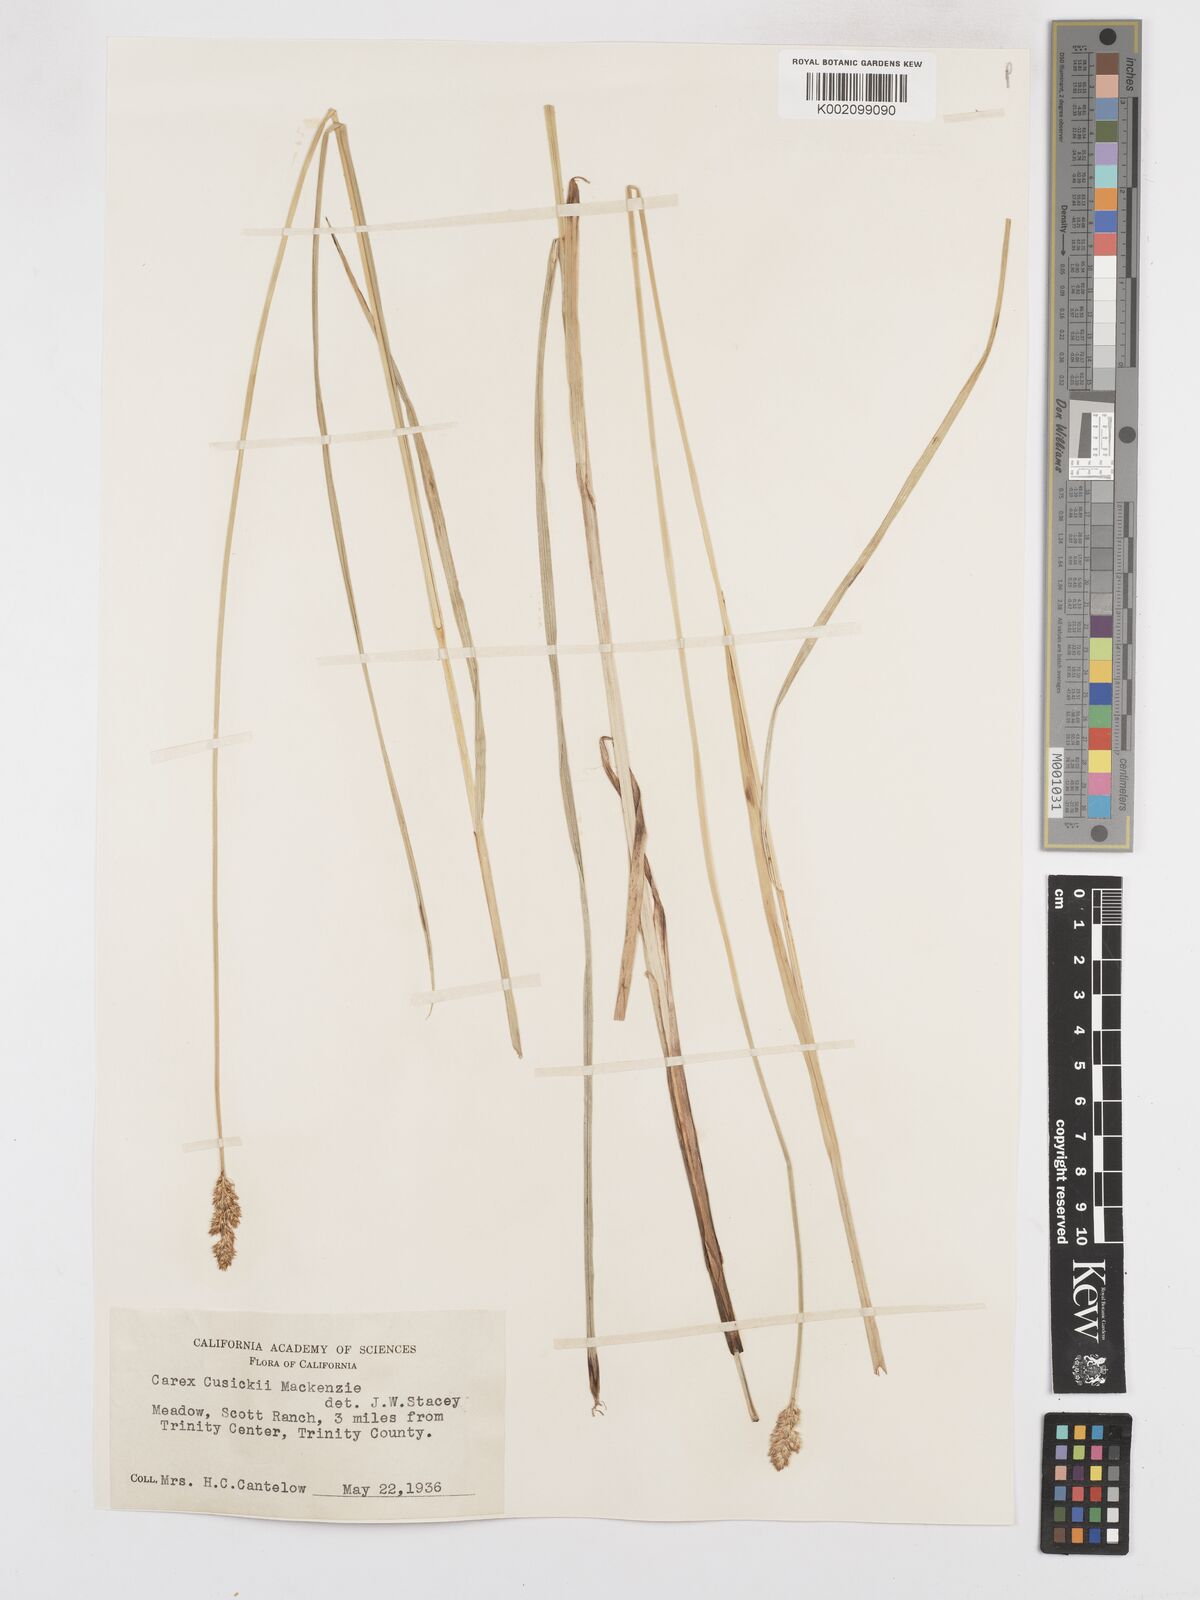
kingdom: Plantae
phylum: Tracheophyta
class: Liliopsida
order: Poales
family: Cyperaceae
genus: Carex
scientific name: Carex cusickii
